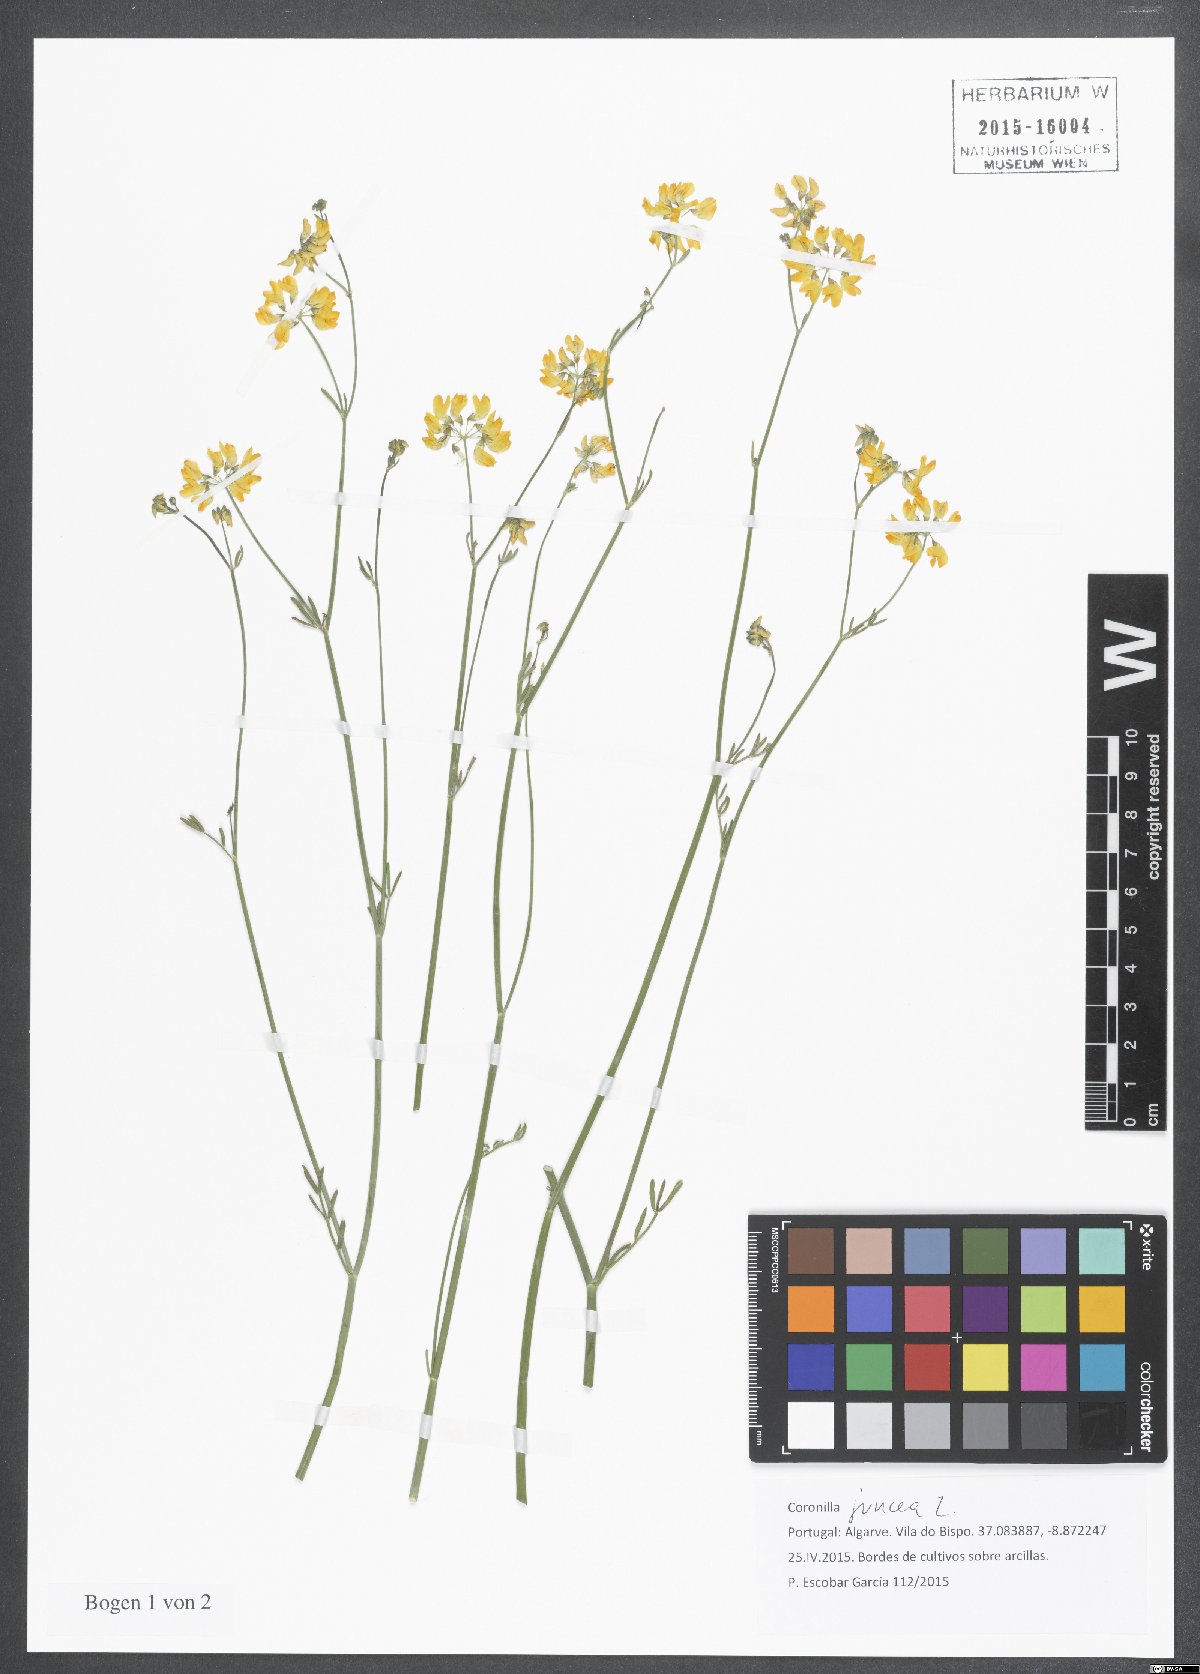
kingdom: Plantae
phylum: Tracheophyta
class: Magnoliopsida
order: Fabales
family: Fabaceae
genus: Coronilla
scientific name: Coronilla juncea
